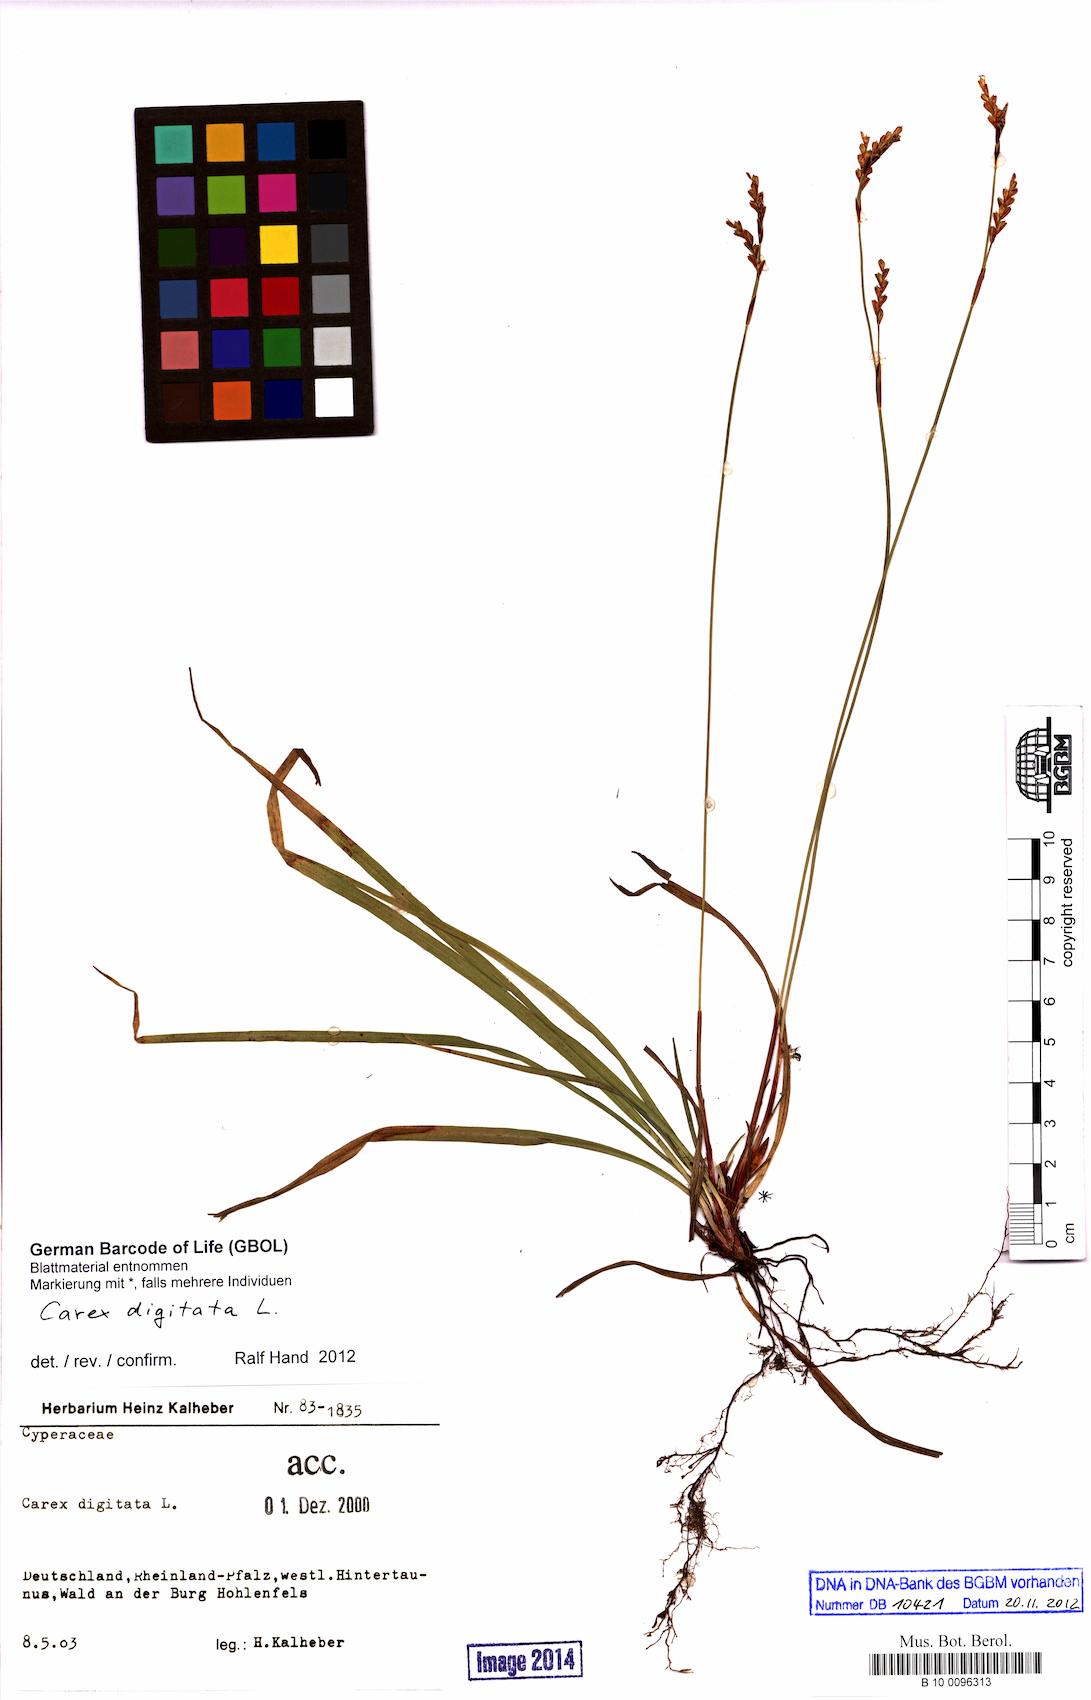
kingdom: Plantae
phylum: Tracheophyta
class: Liliopsida
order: Poales
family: Cyperaceae
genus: Carex
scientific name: Carex digitata
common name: Fingered sedge
